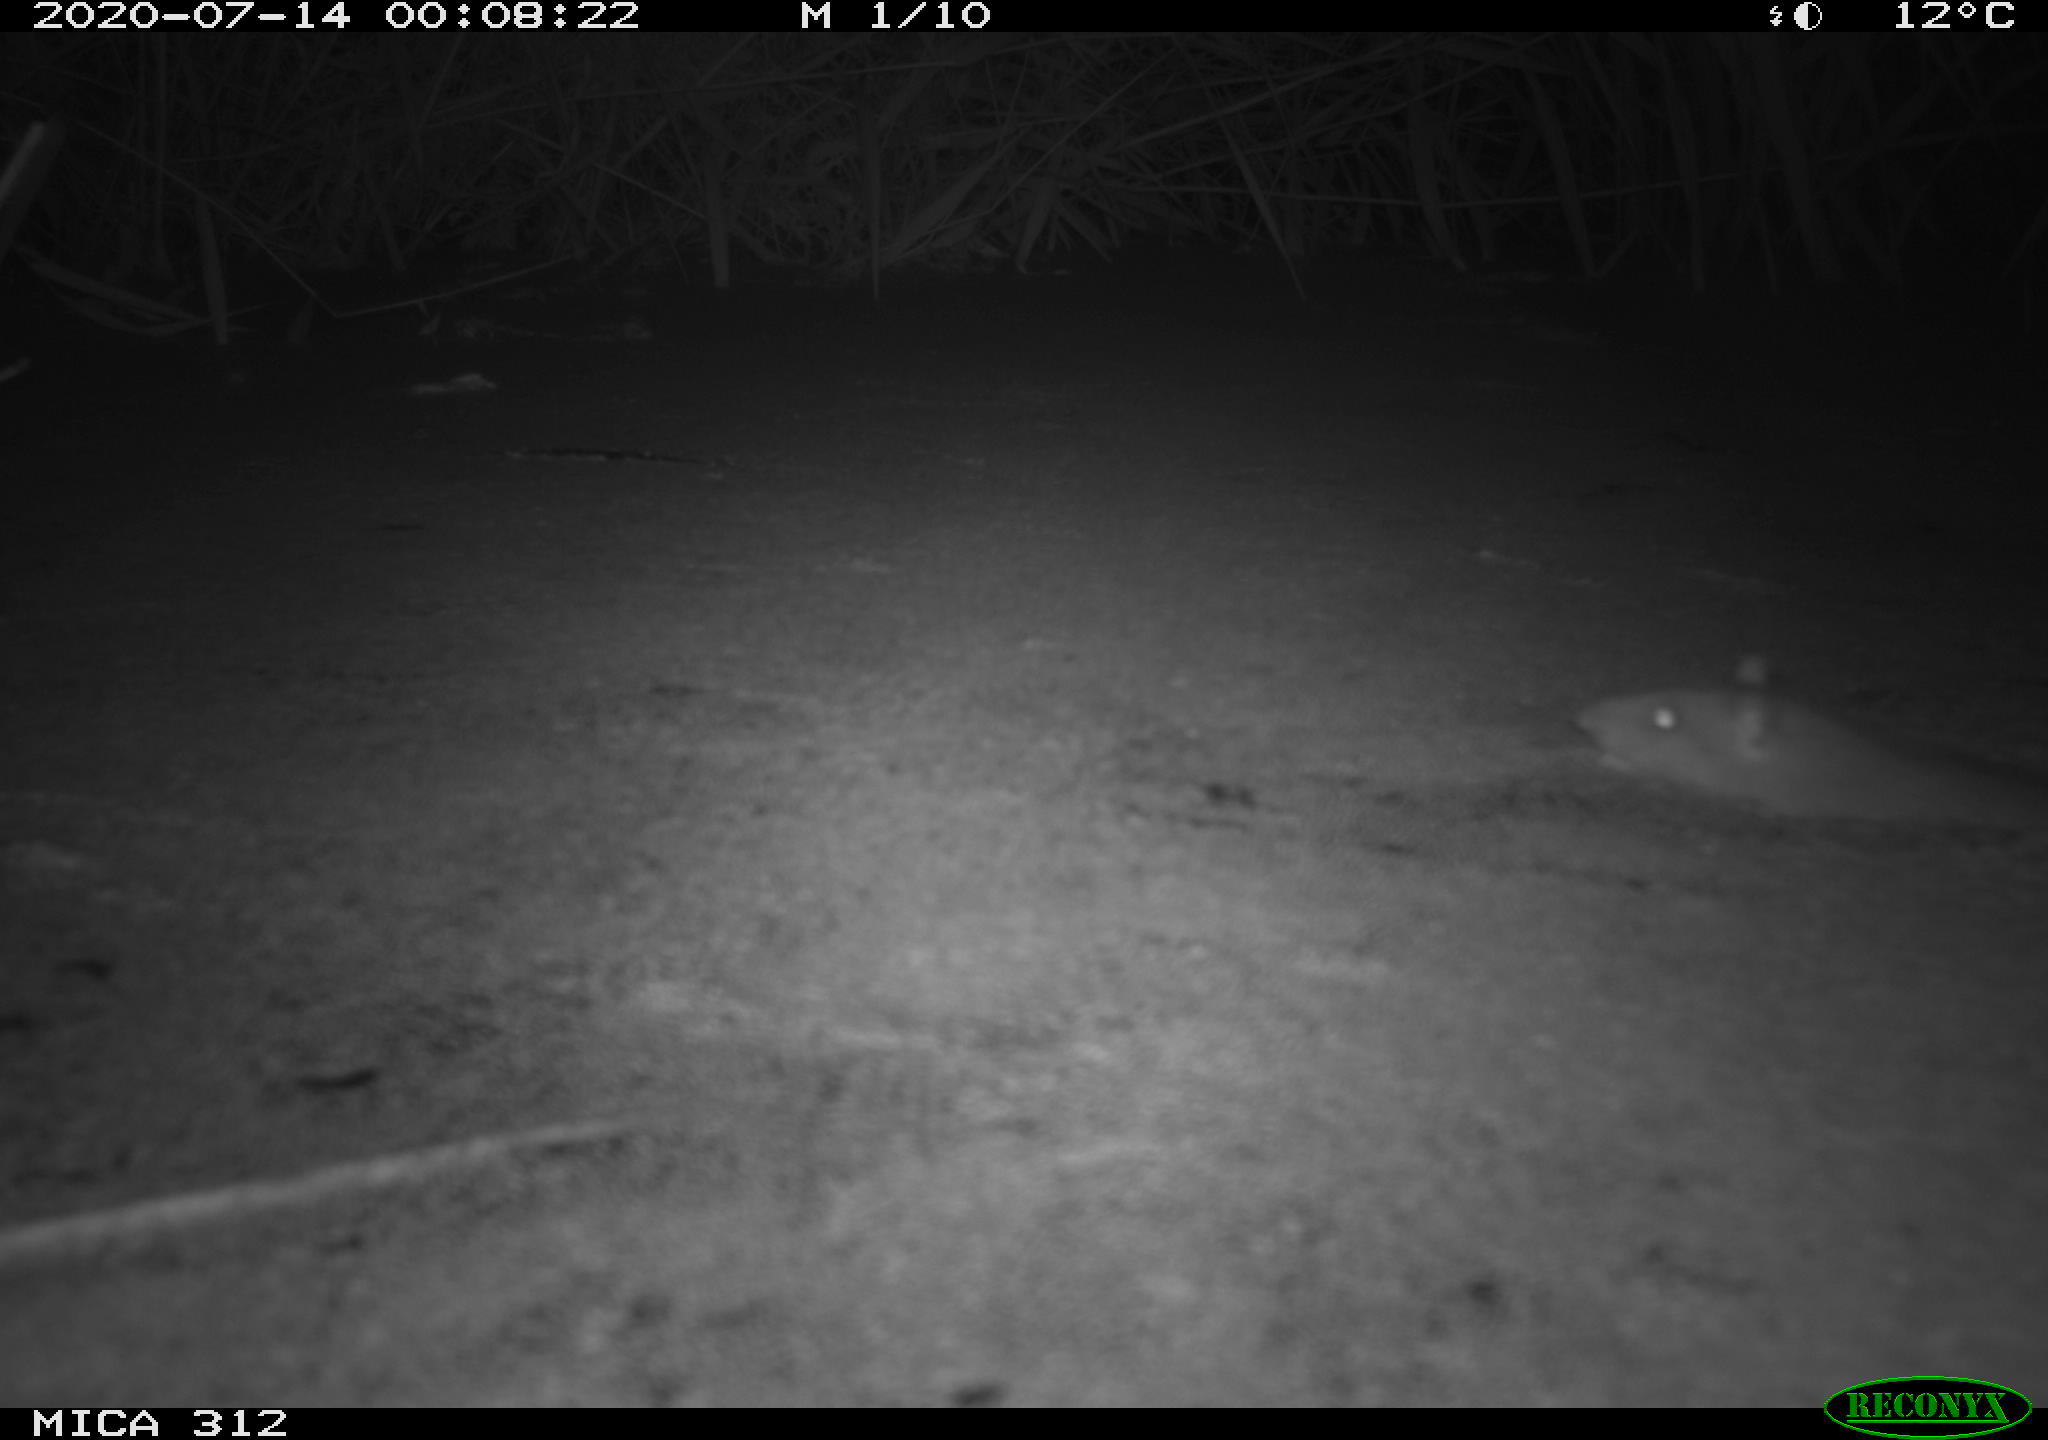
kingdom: Animalia
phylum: Chordata
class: Mammalia
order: Rodentia
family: Muridae
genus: Rattus
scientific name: Rattus norvegicus
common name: Brown rat
